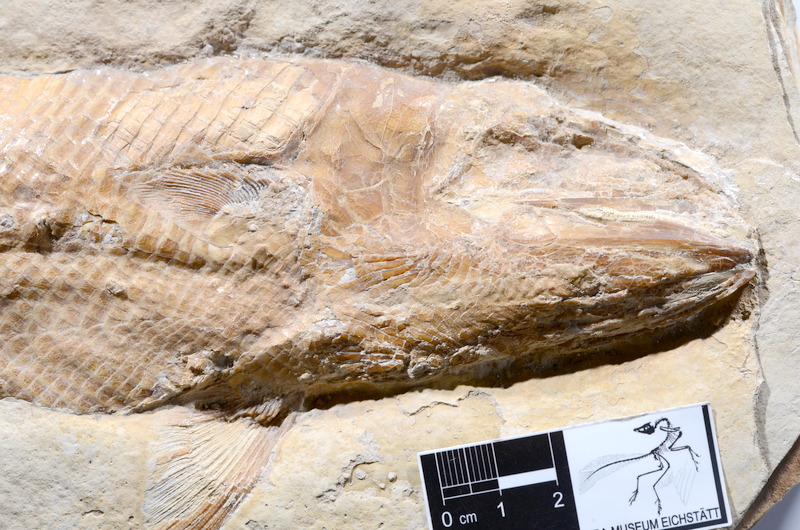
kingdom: Animalia
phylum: Chordata
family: Ankylophoridae
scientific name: Ankylophoridae
